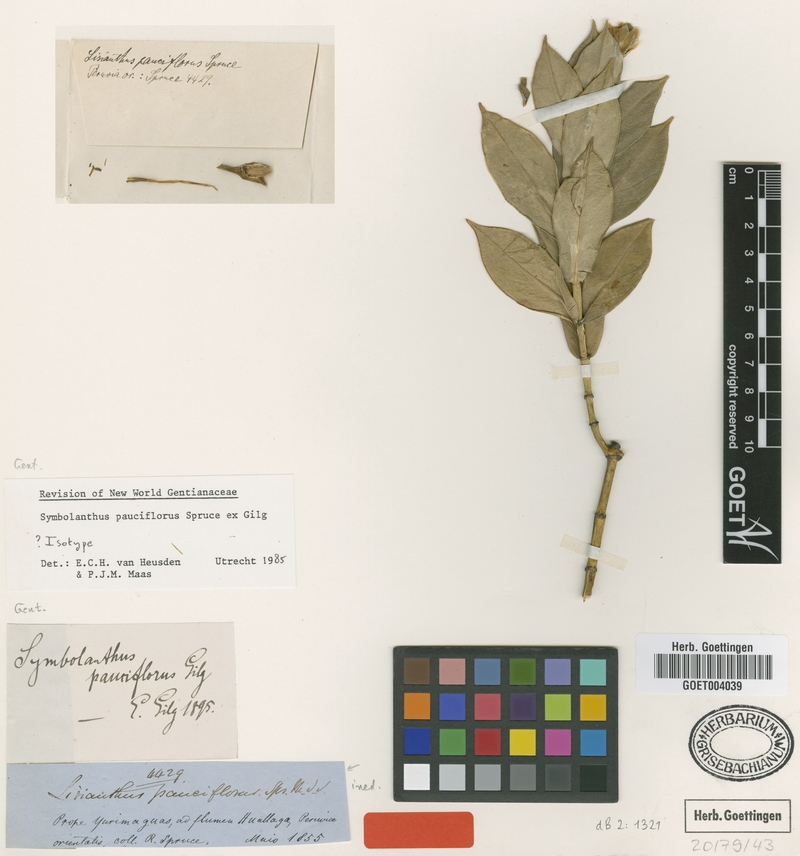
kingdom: Plantae
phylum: Tracheophyta
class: Magnoliopsida
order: Gentianales
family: Gentianaceae
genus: Symbolanthus
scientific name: Symbolanthus pauciflorus
